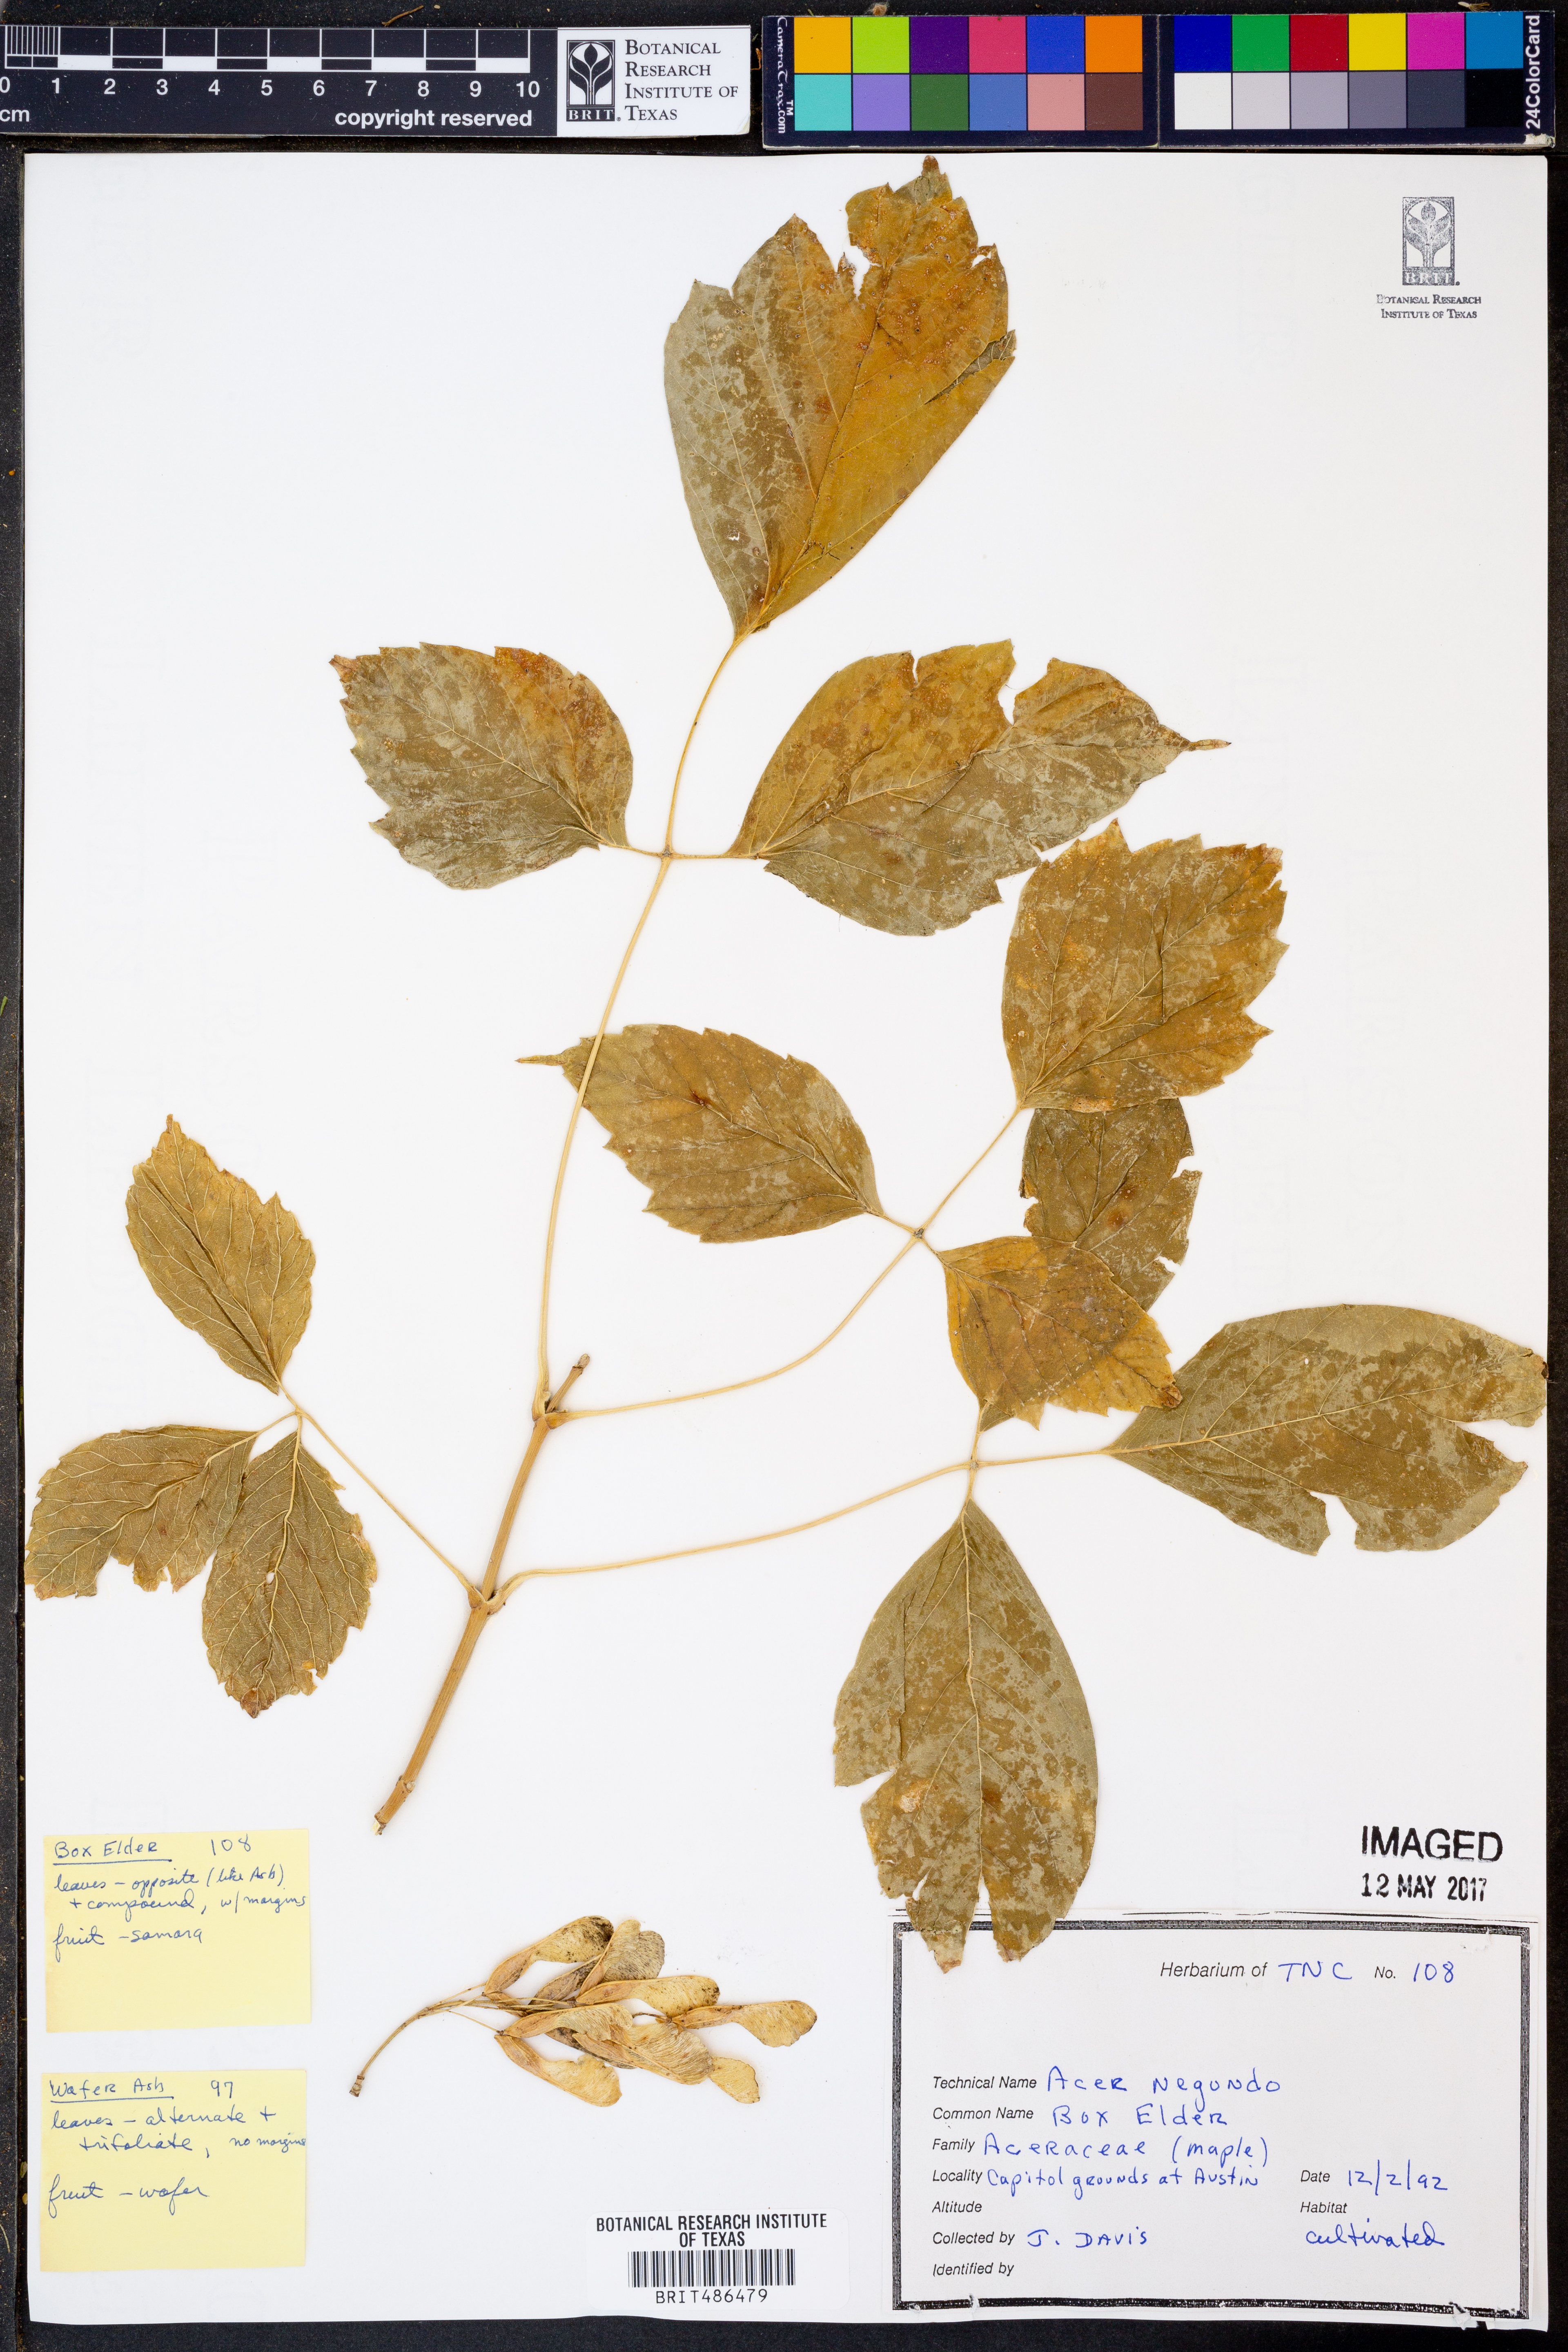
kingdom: Plantae
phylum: Tracheophyta
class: Magnoliopsida
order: Sapindales
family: Sapindaceae
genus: Acer
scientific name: Acer negundo
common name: Ashleaf maple
